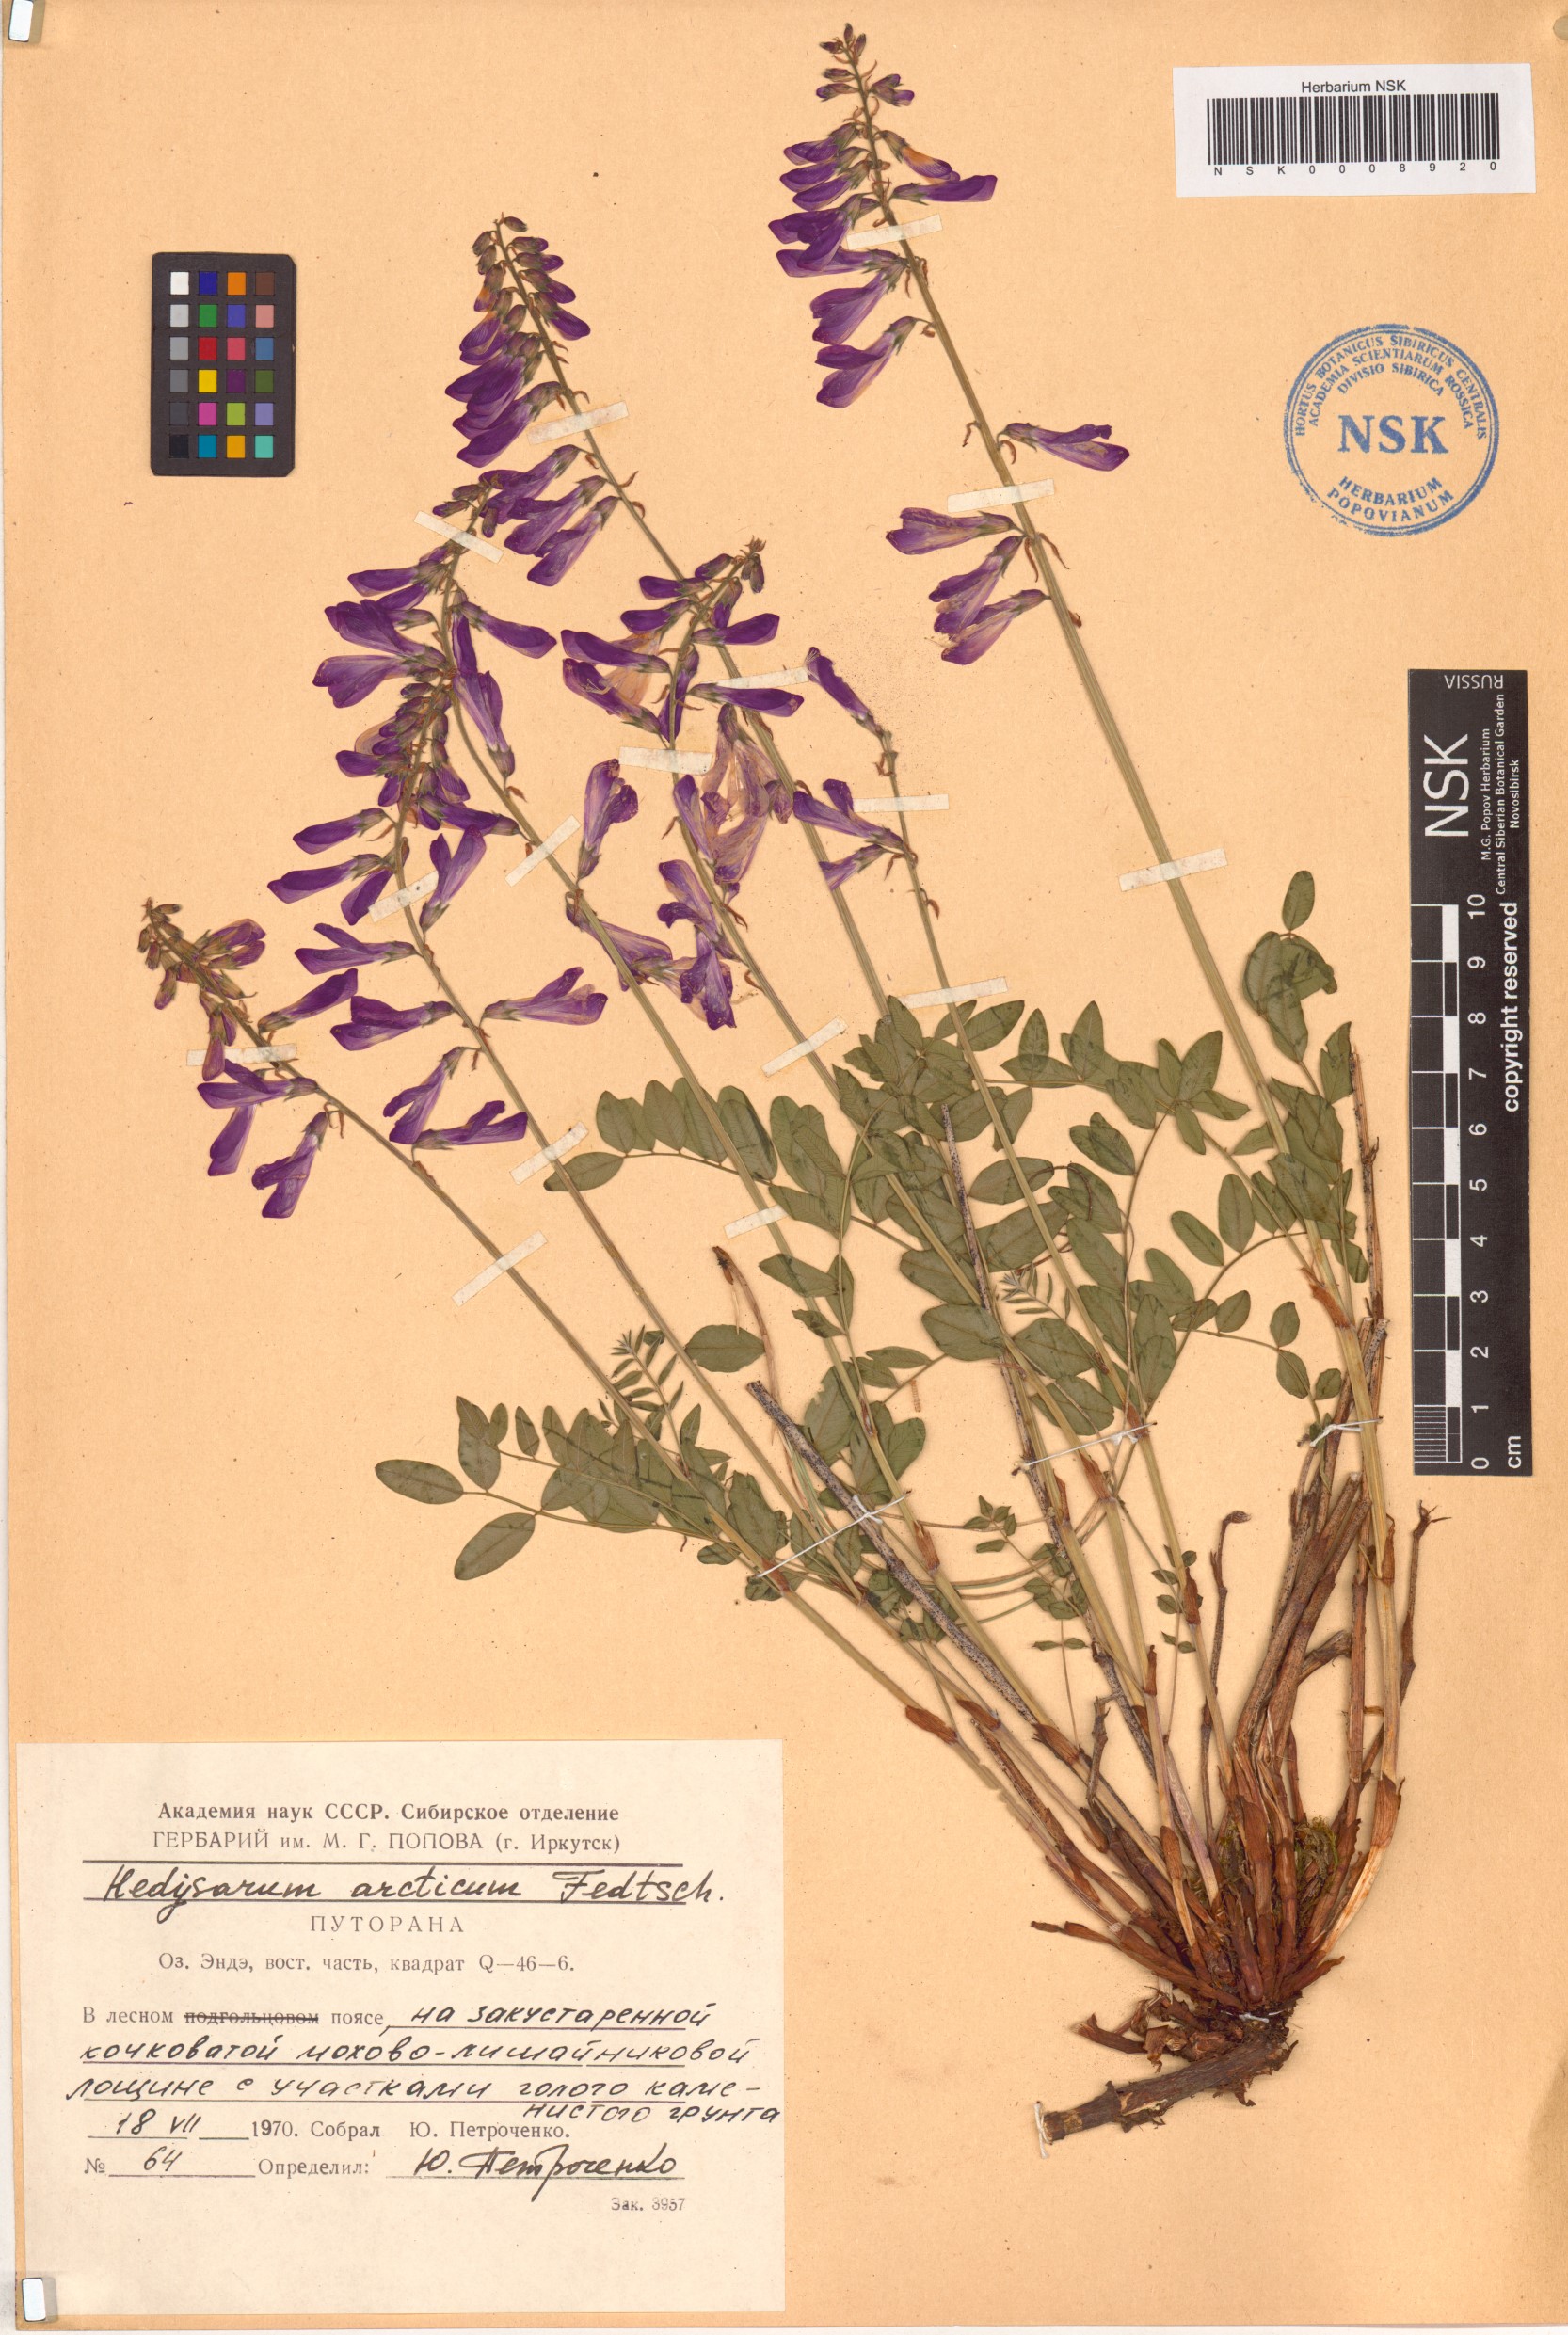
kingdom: Plantae
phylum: Tracheophyta
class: Magnoliopsida
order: Fabales
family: Fabaceae
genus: Hedysarum
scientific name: Hedysarum hedysaroides
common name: Alpine french-honeysuckle
